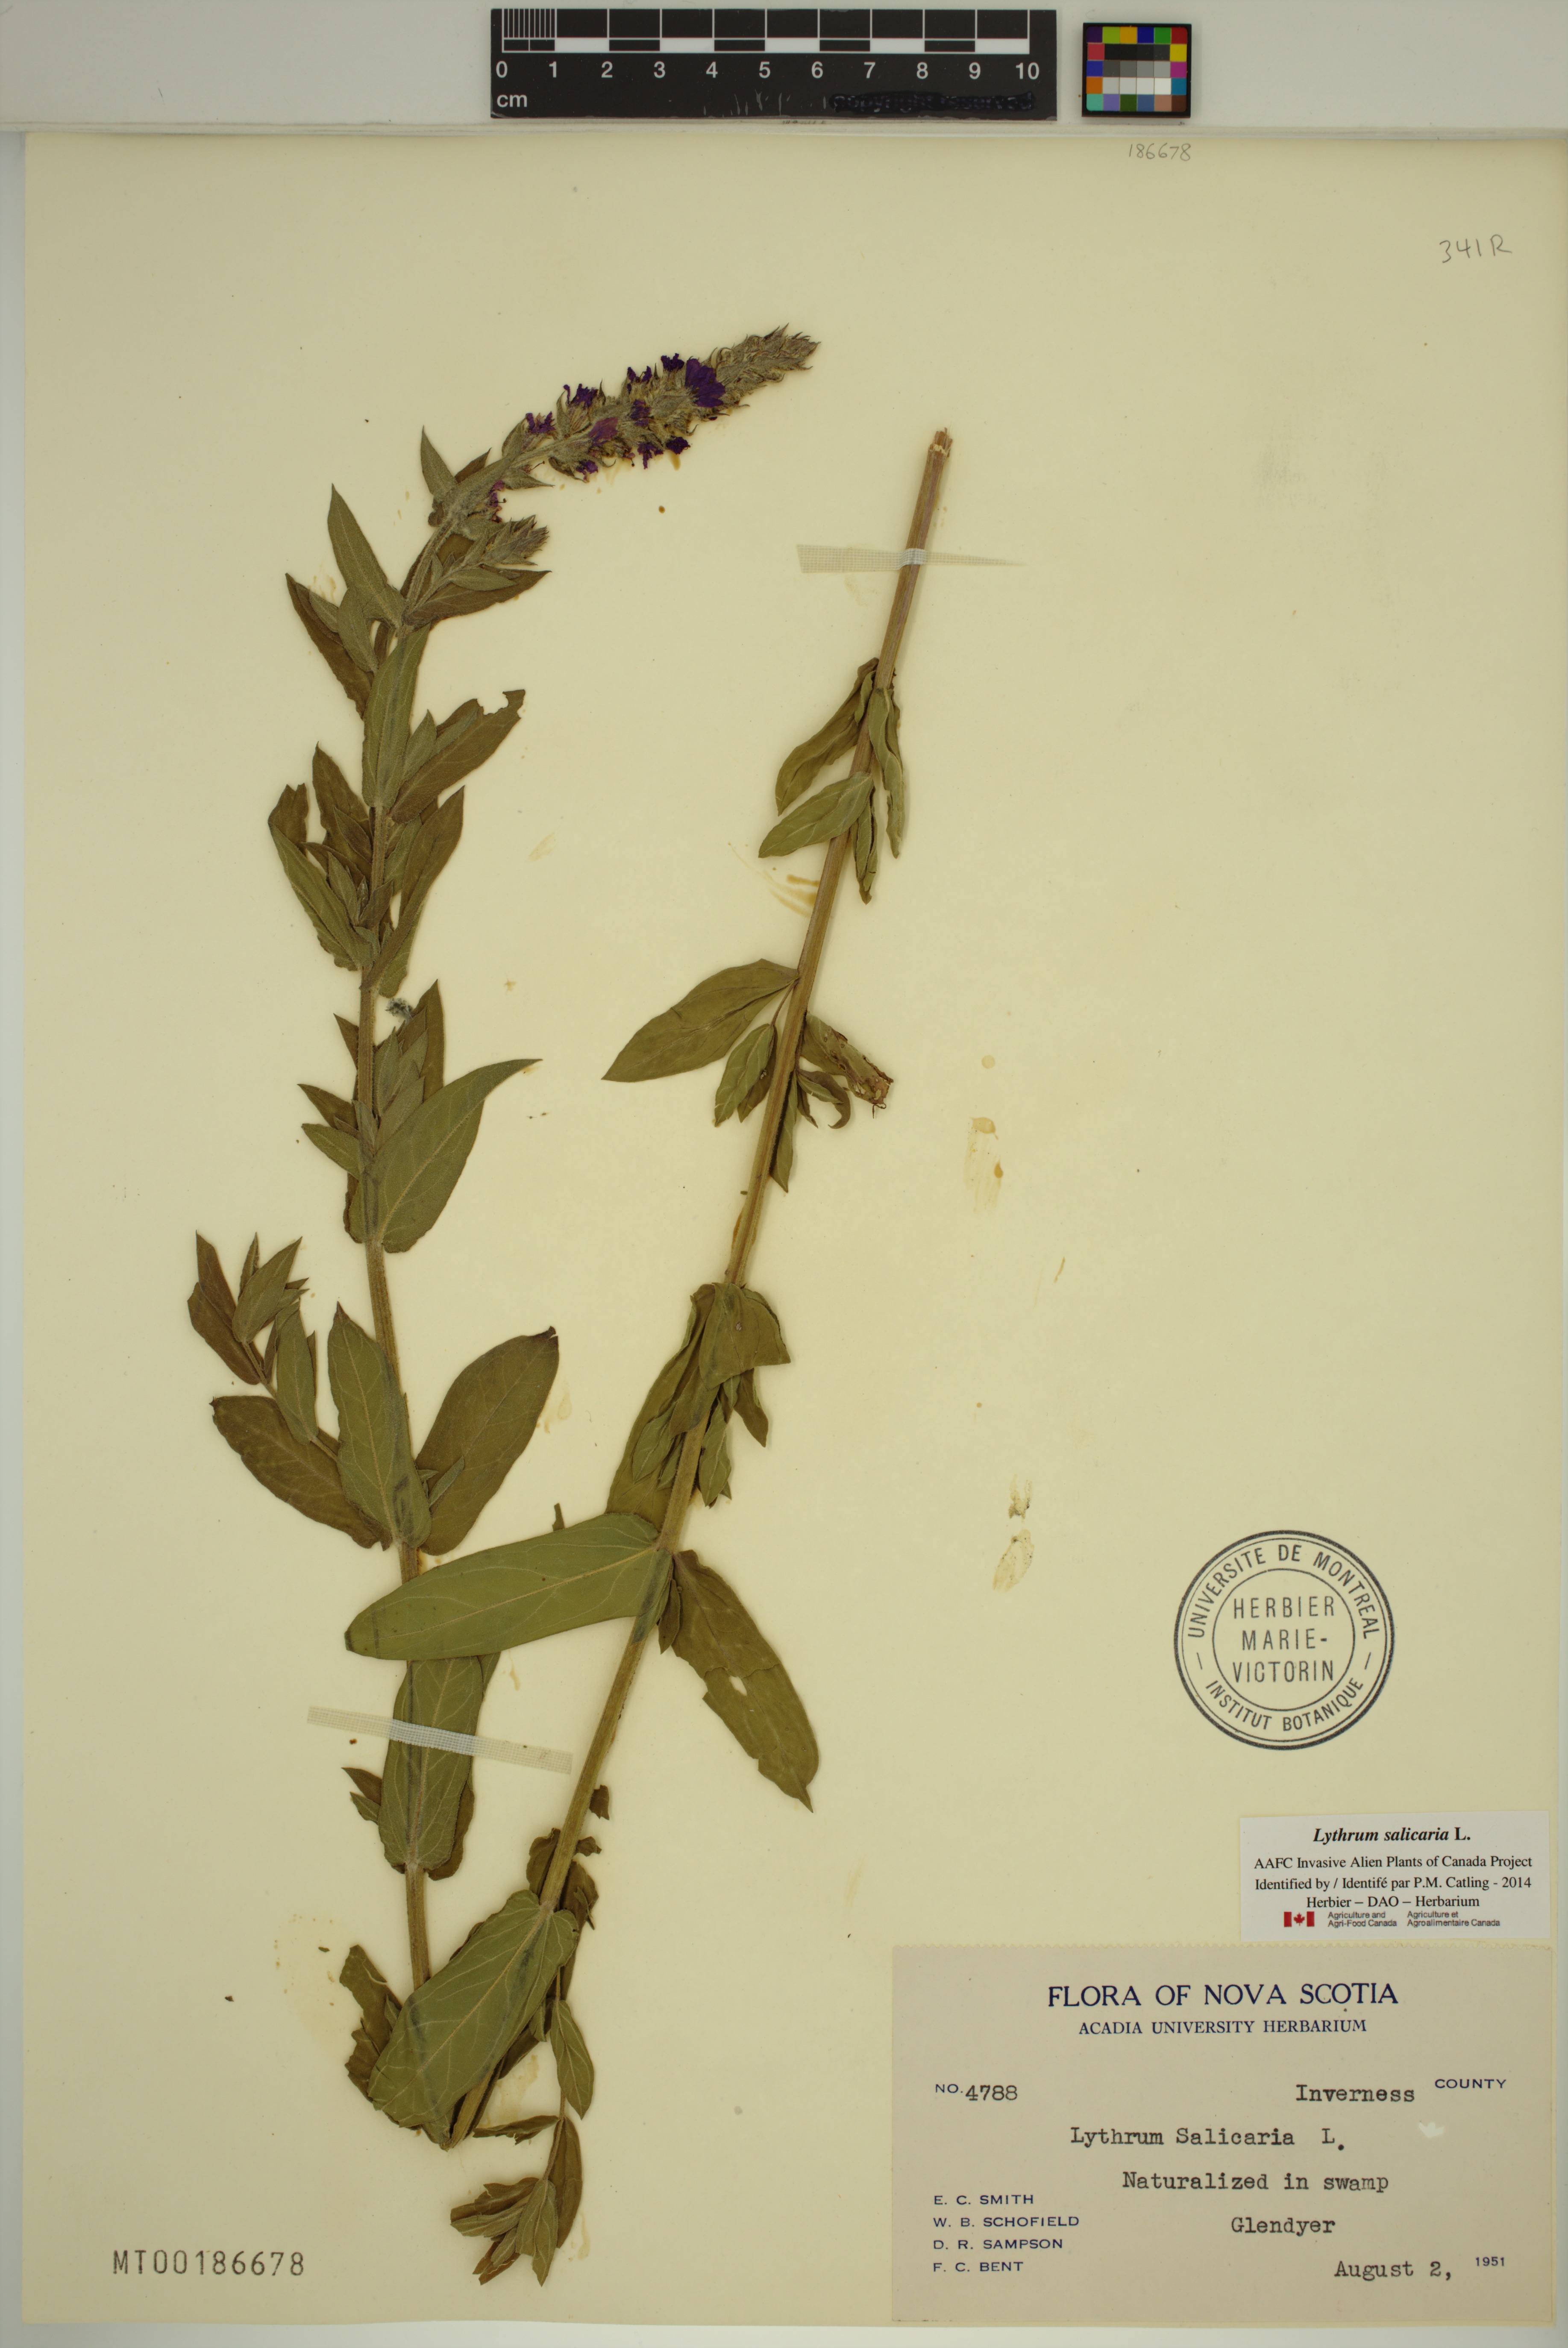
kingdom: Plantae
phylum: Tracheophyta
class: Magnoliopsida
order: Myrtales
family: Lythraceae
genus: Lythrum
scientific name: Lythrum salicaria
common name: Purple loosestrife
